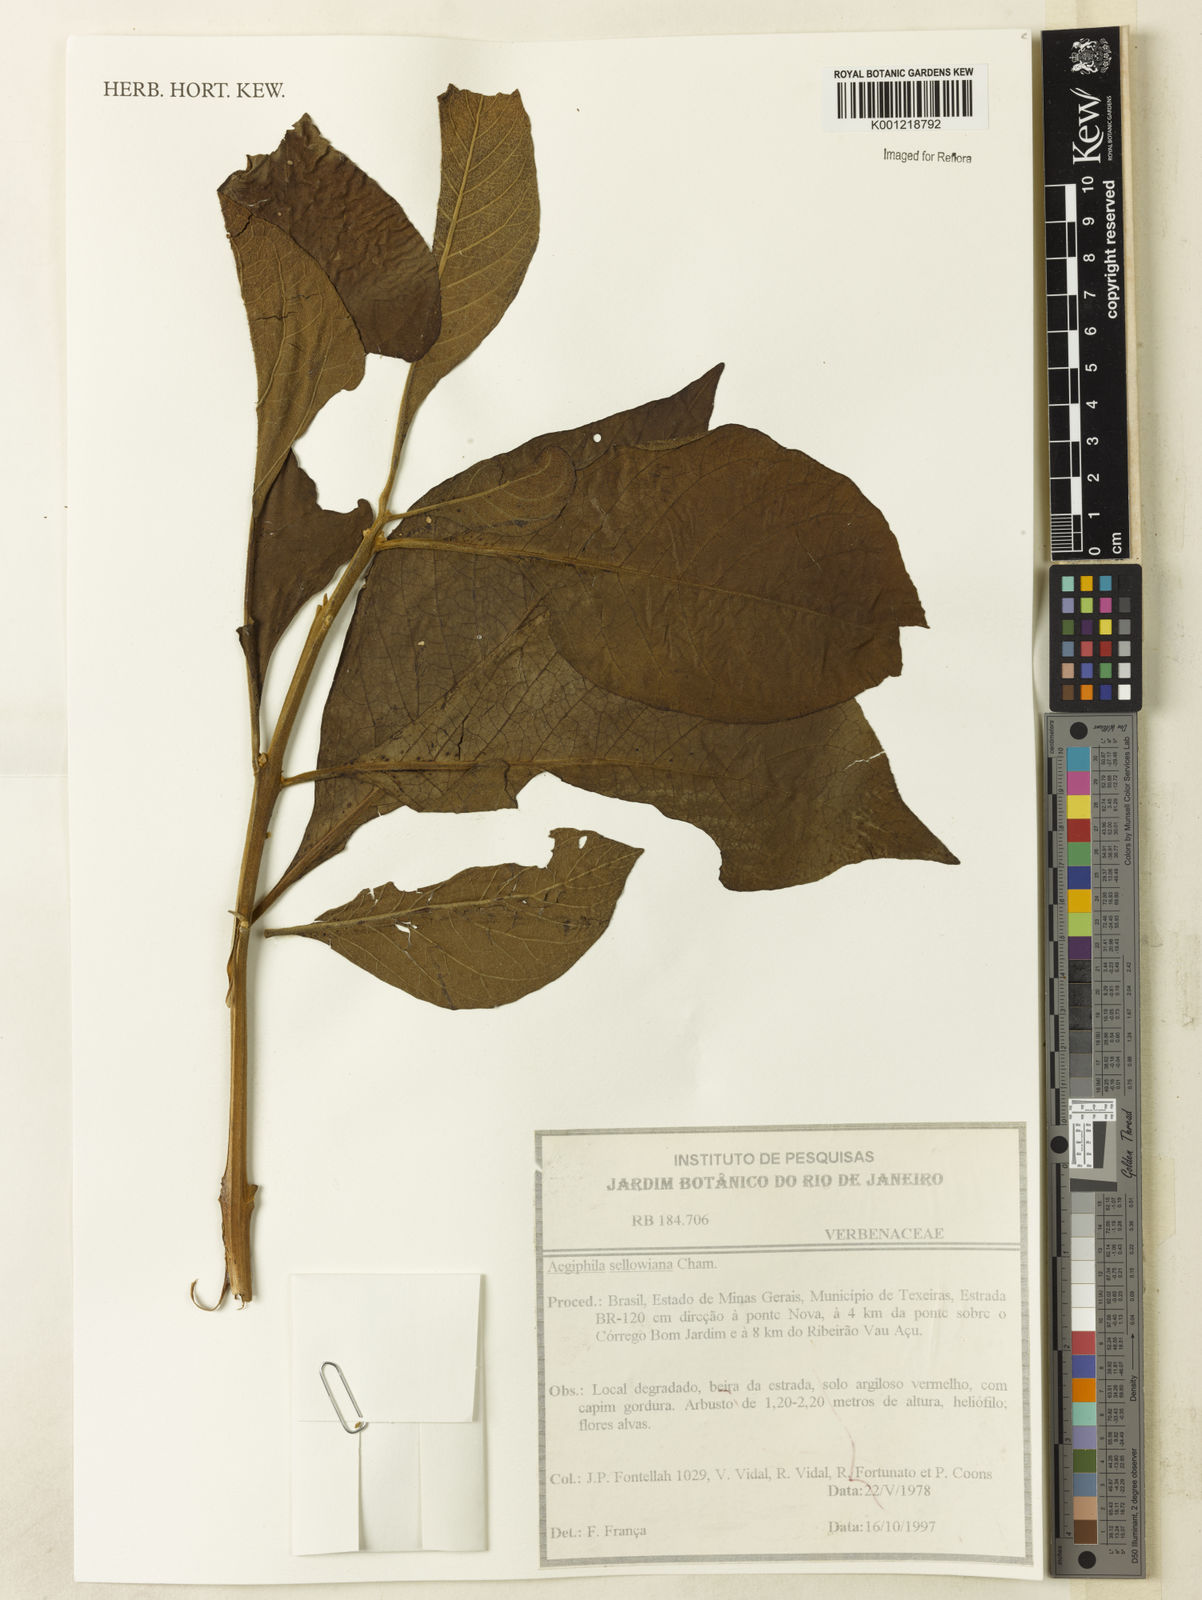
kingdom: Plantae
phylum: Tracheophyta
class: Magnoliopsida
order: Lamiales
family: Lamiaceae
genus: Aegiphila
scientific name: Aegiphila verticillata
